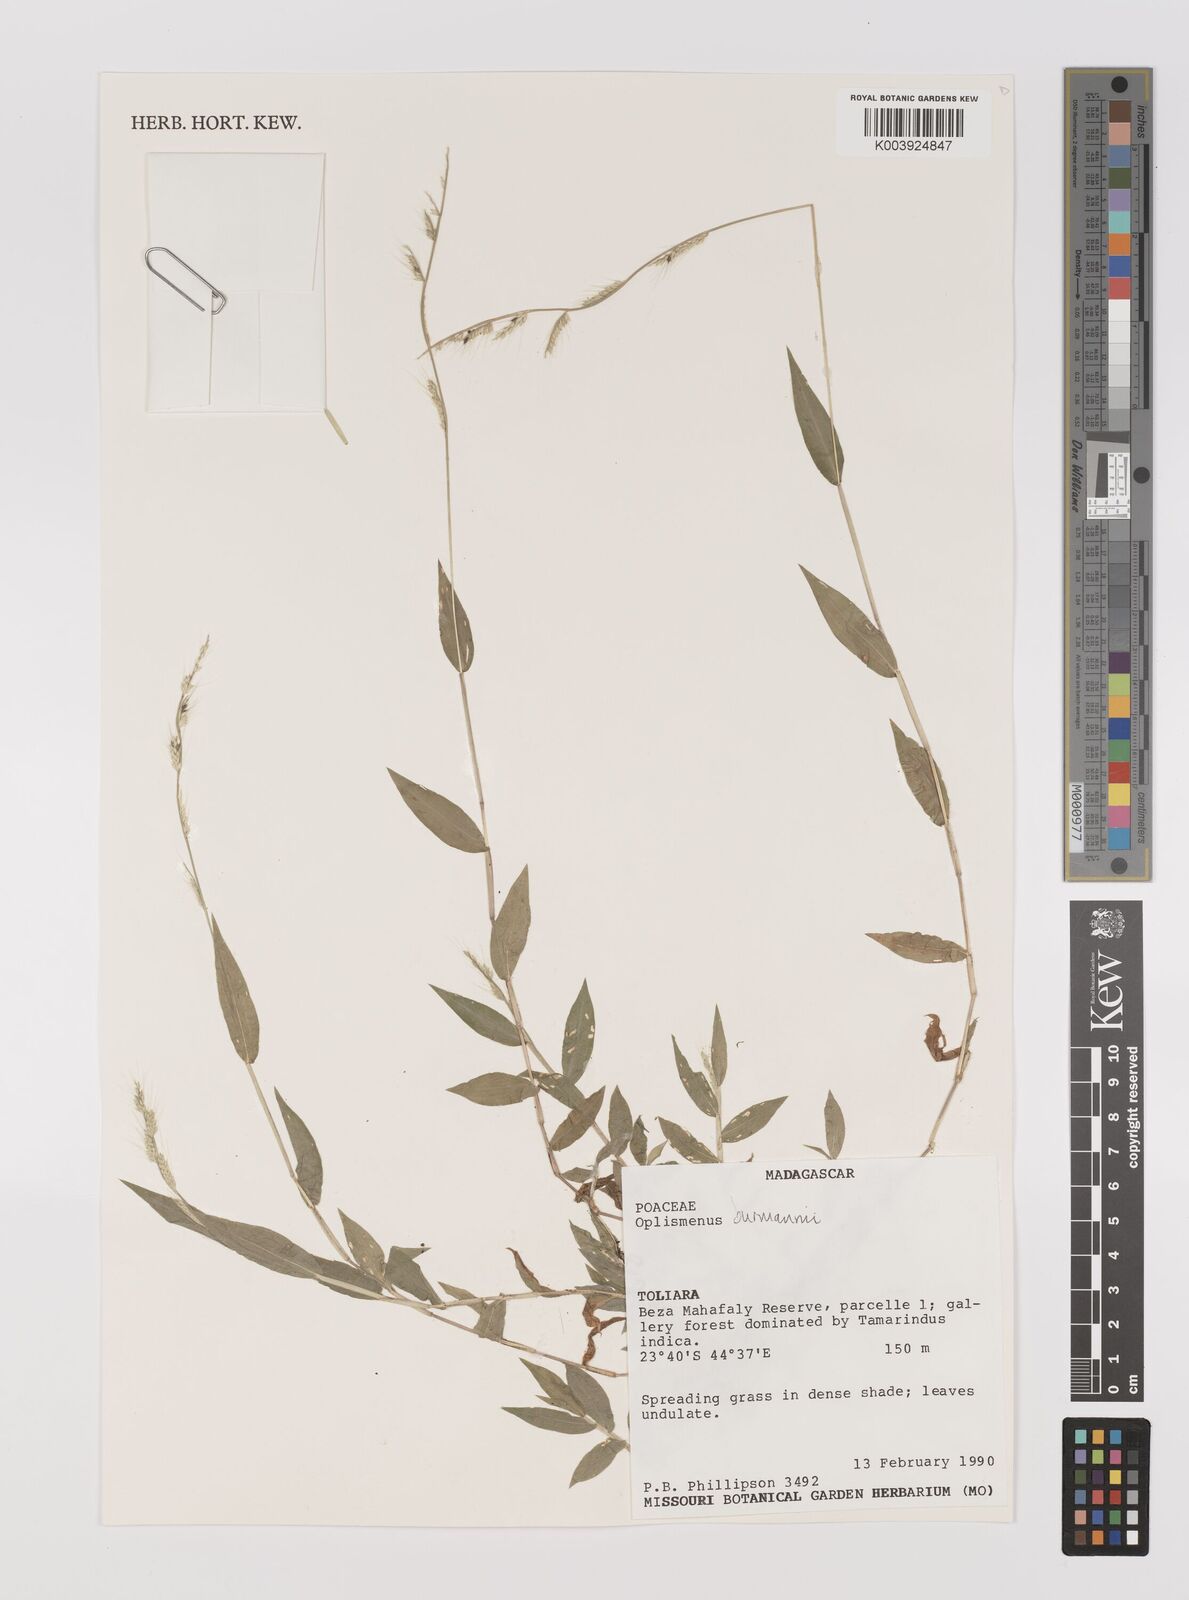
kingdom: Plantae
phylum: Tracheophyta
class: Liliopsida
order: Poales
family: Poaceae
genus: Oplismenus
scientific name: Oplismenus burmanni
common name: Burmann's basketgrass
